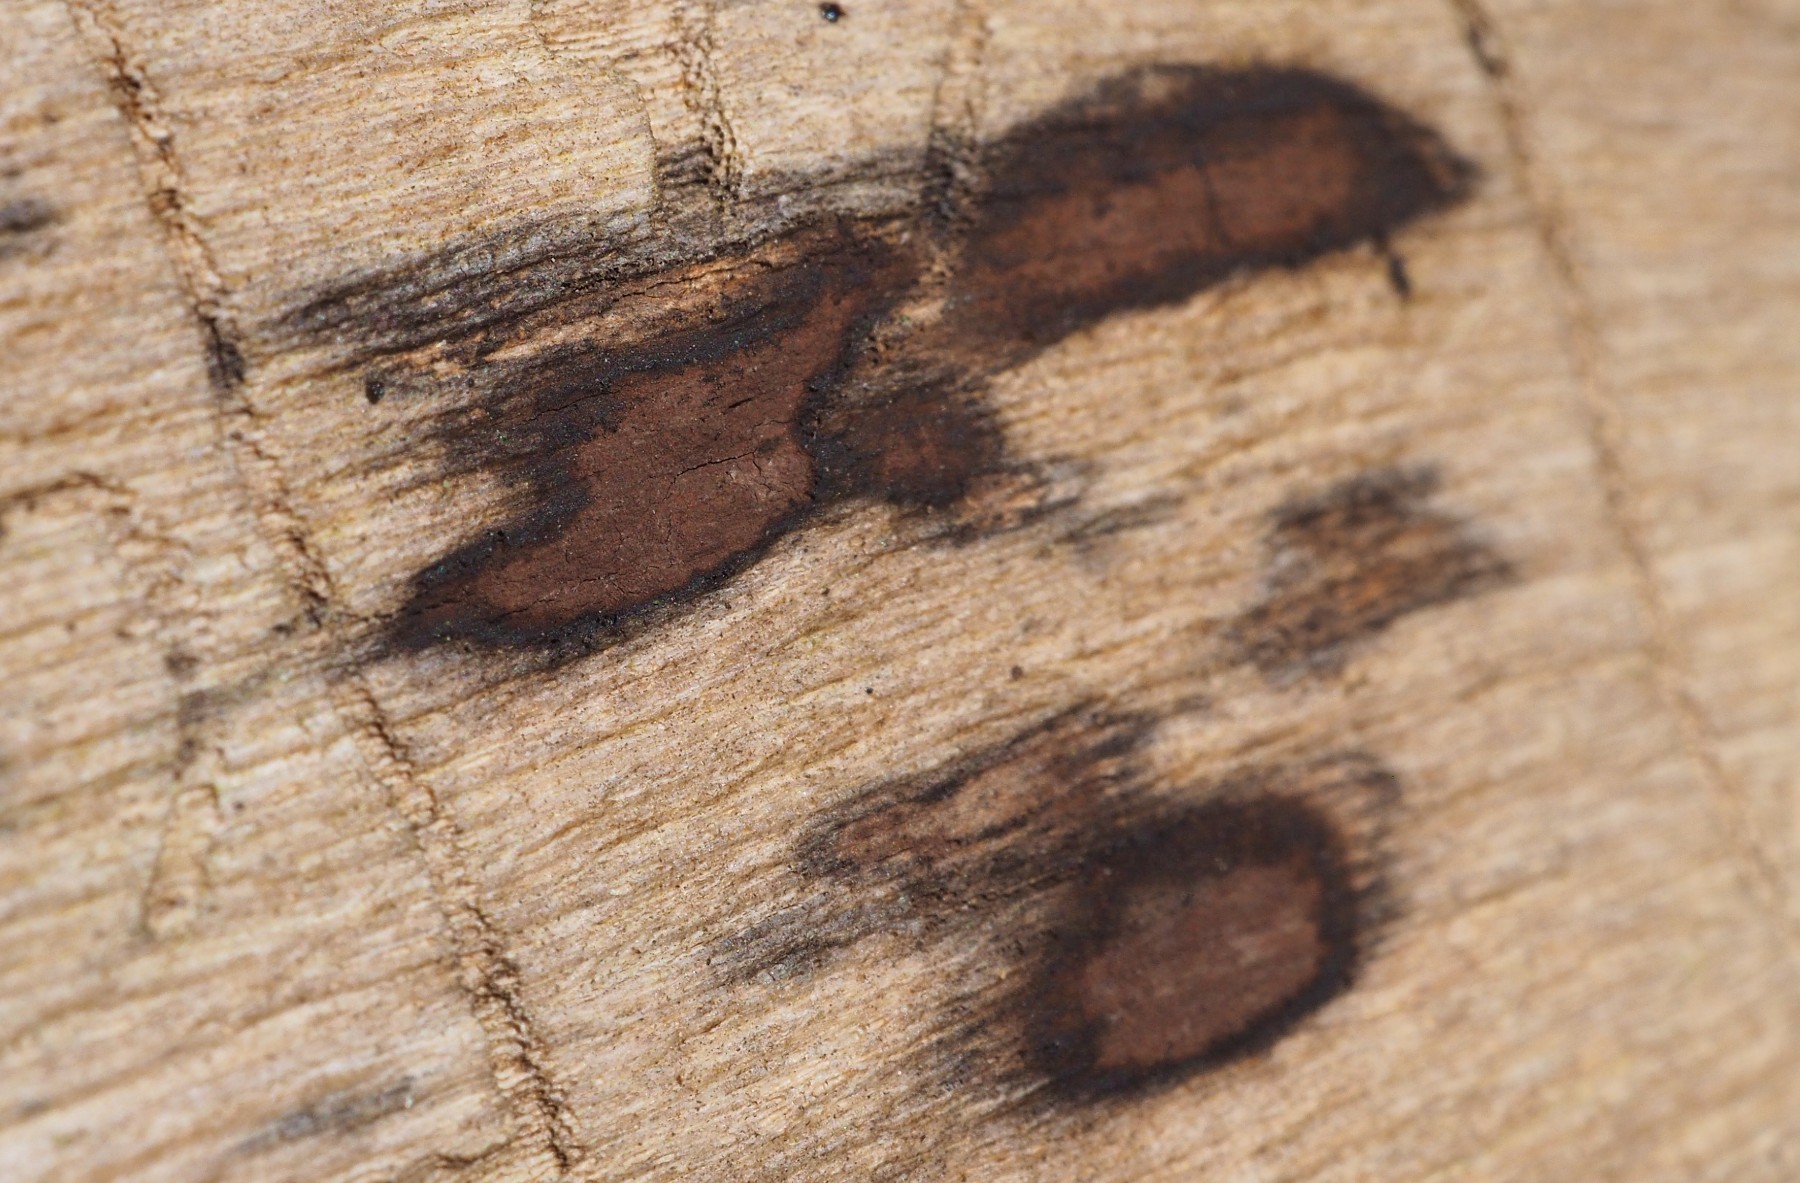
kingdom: Fungi
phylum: Ascomycota
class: Sordariomycetes
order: Xylariales
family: Hypoxylaceae
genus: Hypoxylon
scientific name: Hypoxylon petriniae
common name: nedsænket kulbær
